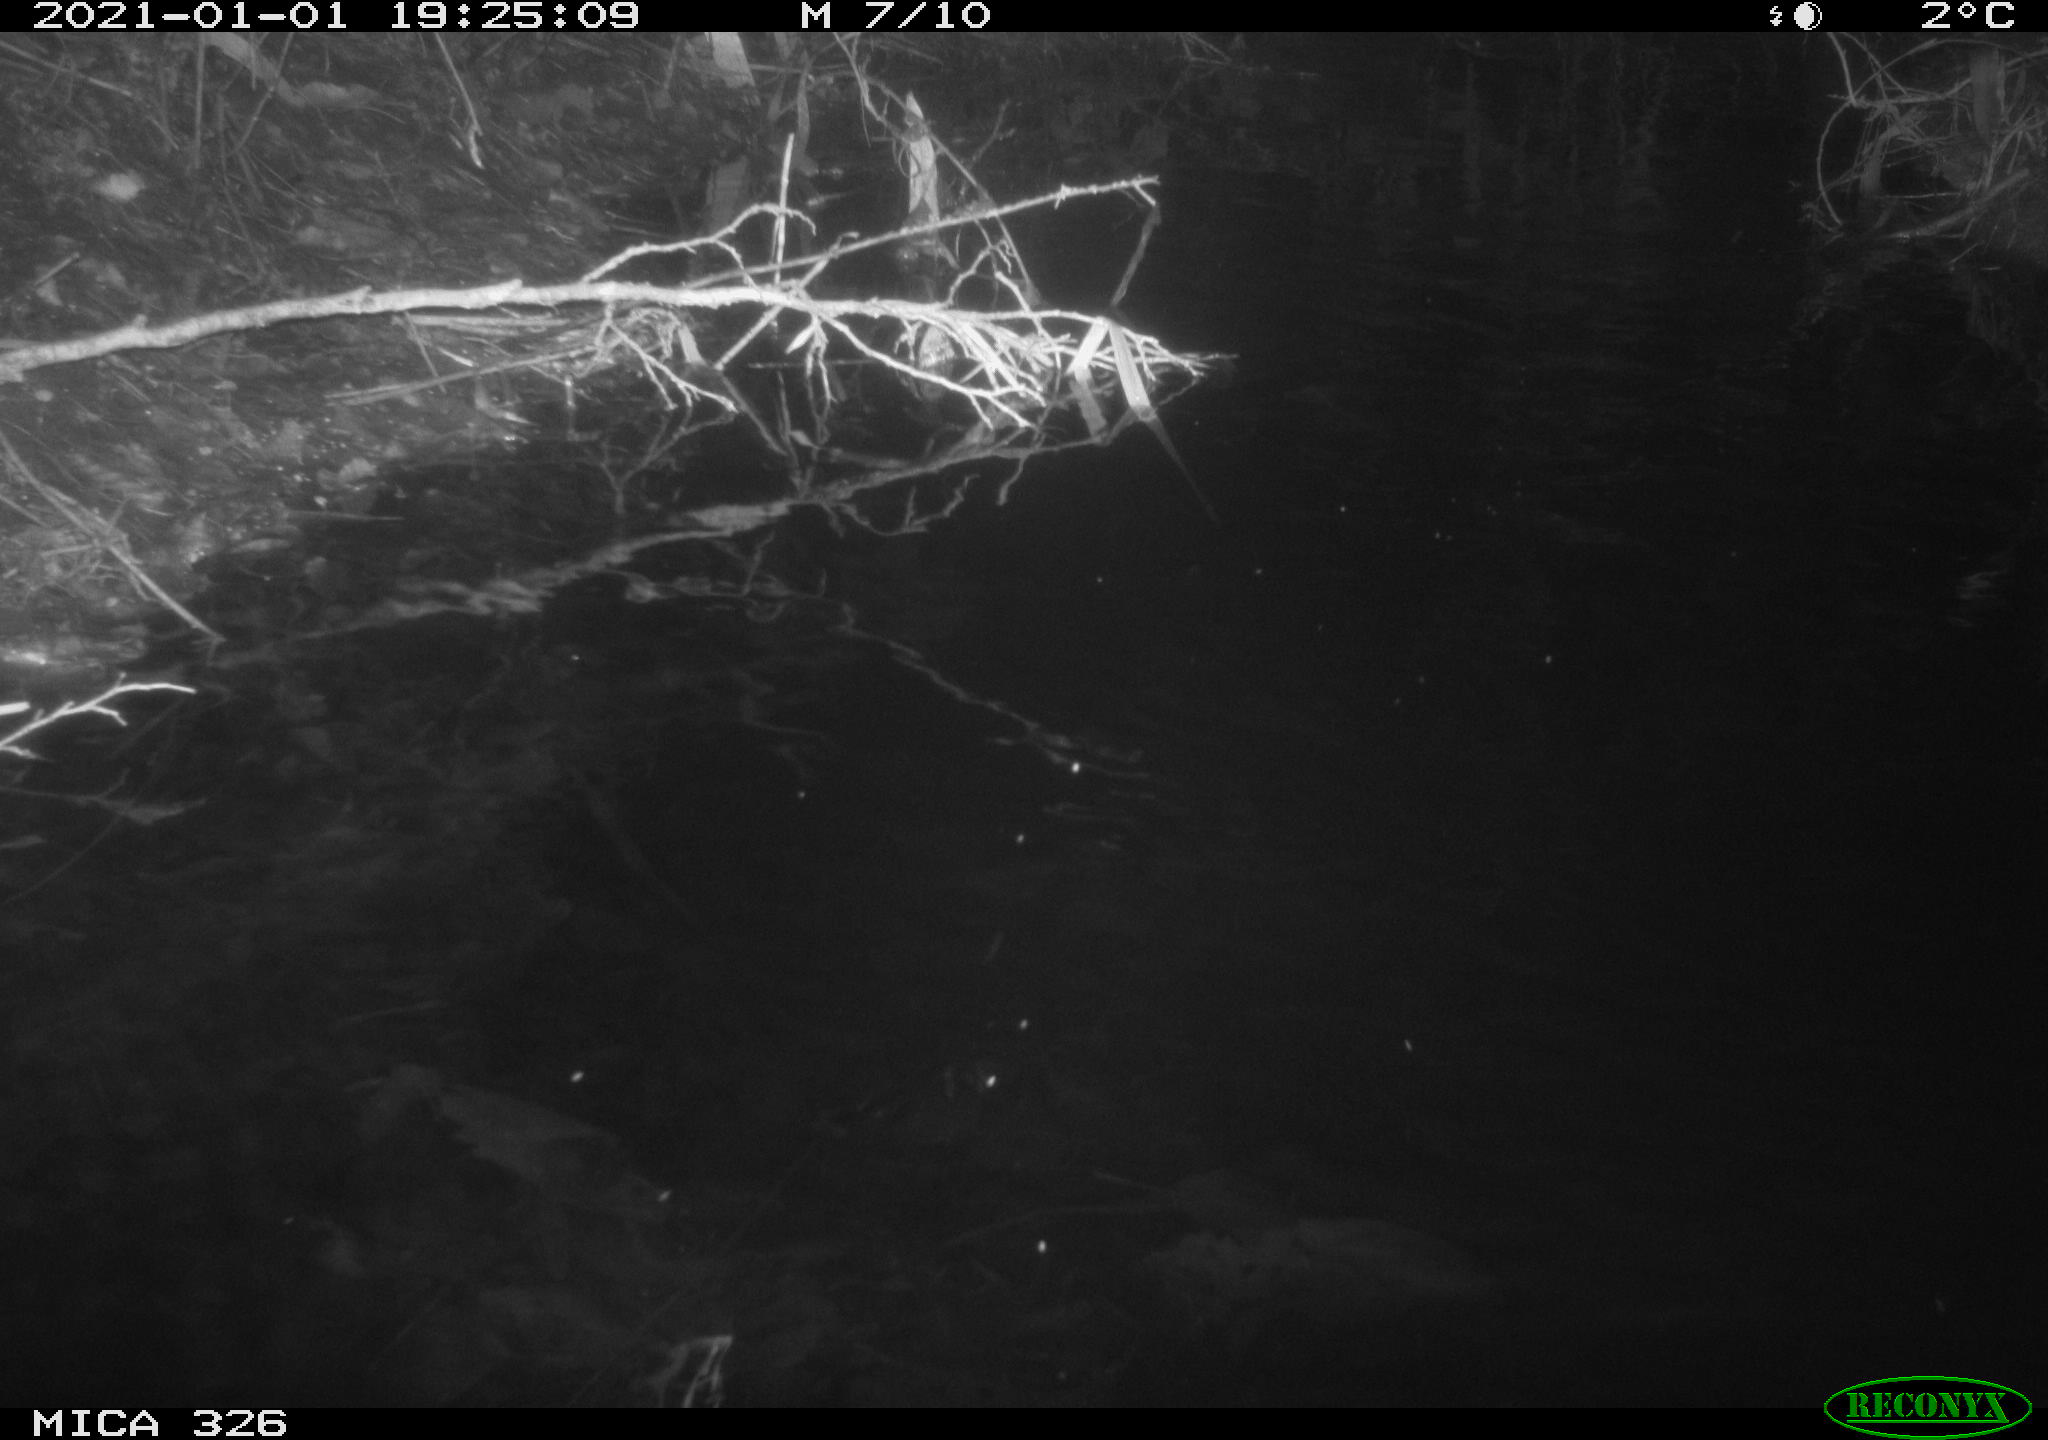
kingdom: Animalia
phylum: Chordata
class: Mammalia
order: Rodentia
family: Cricetidae
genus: Ondatra
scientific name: Ondatra zibethicus
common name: Muskrat
